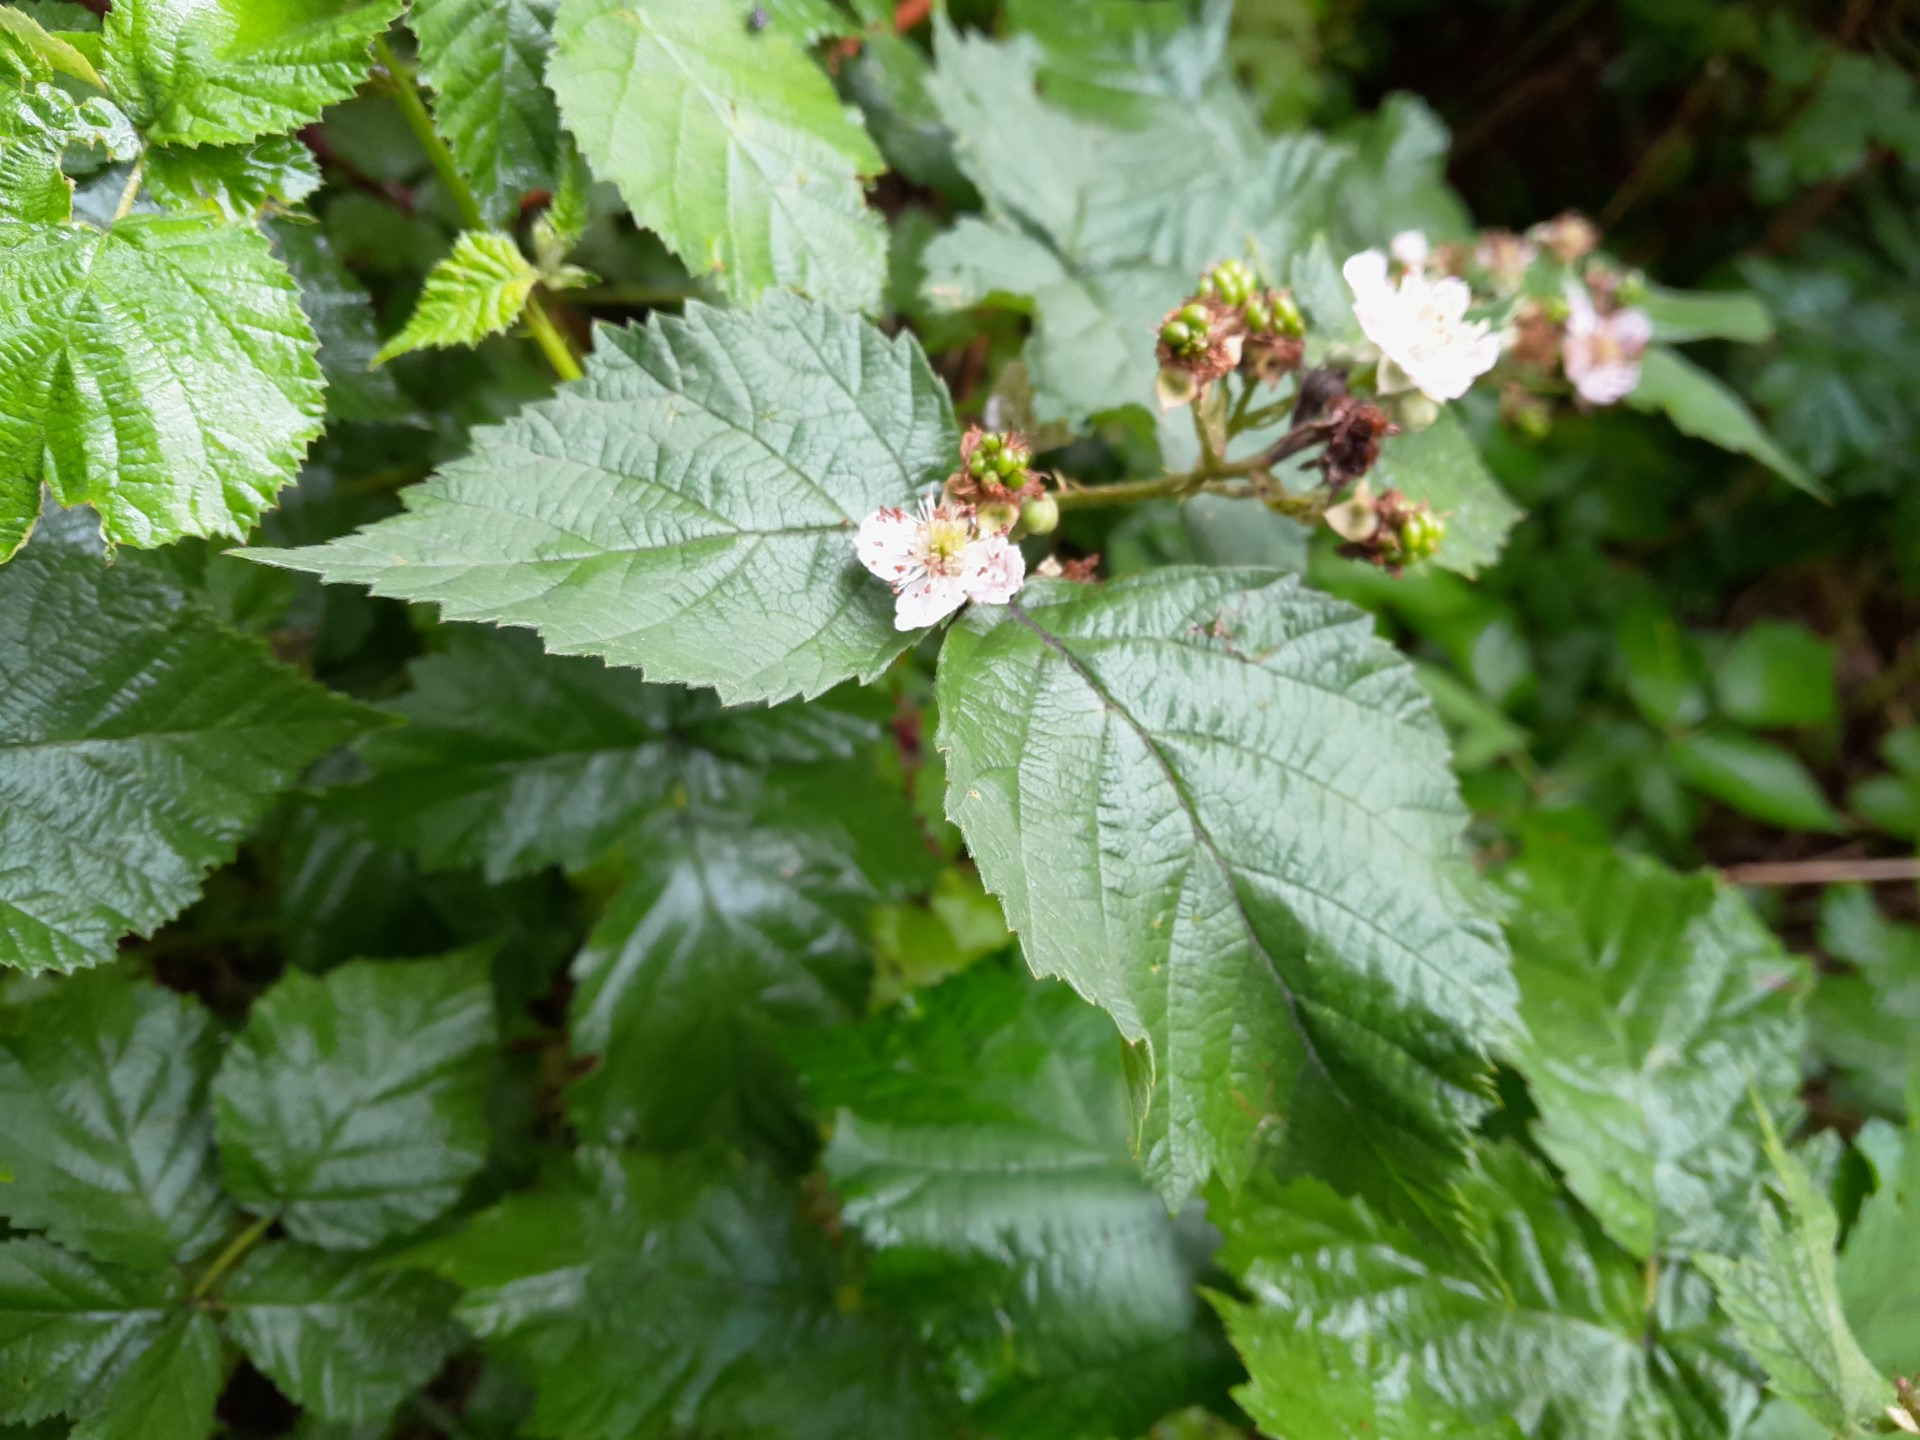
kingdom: Plantae
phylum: Tracheophyta
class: Magnoliopsida
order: Rosales
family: Rosaceae
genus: Rubus
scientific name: Rubus wahlbergii
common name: Wahlbergs hasselbrombær
